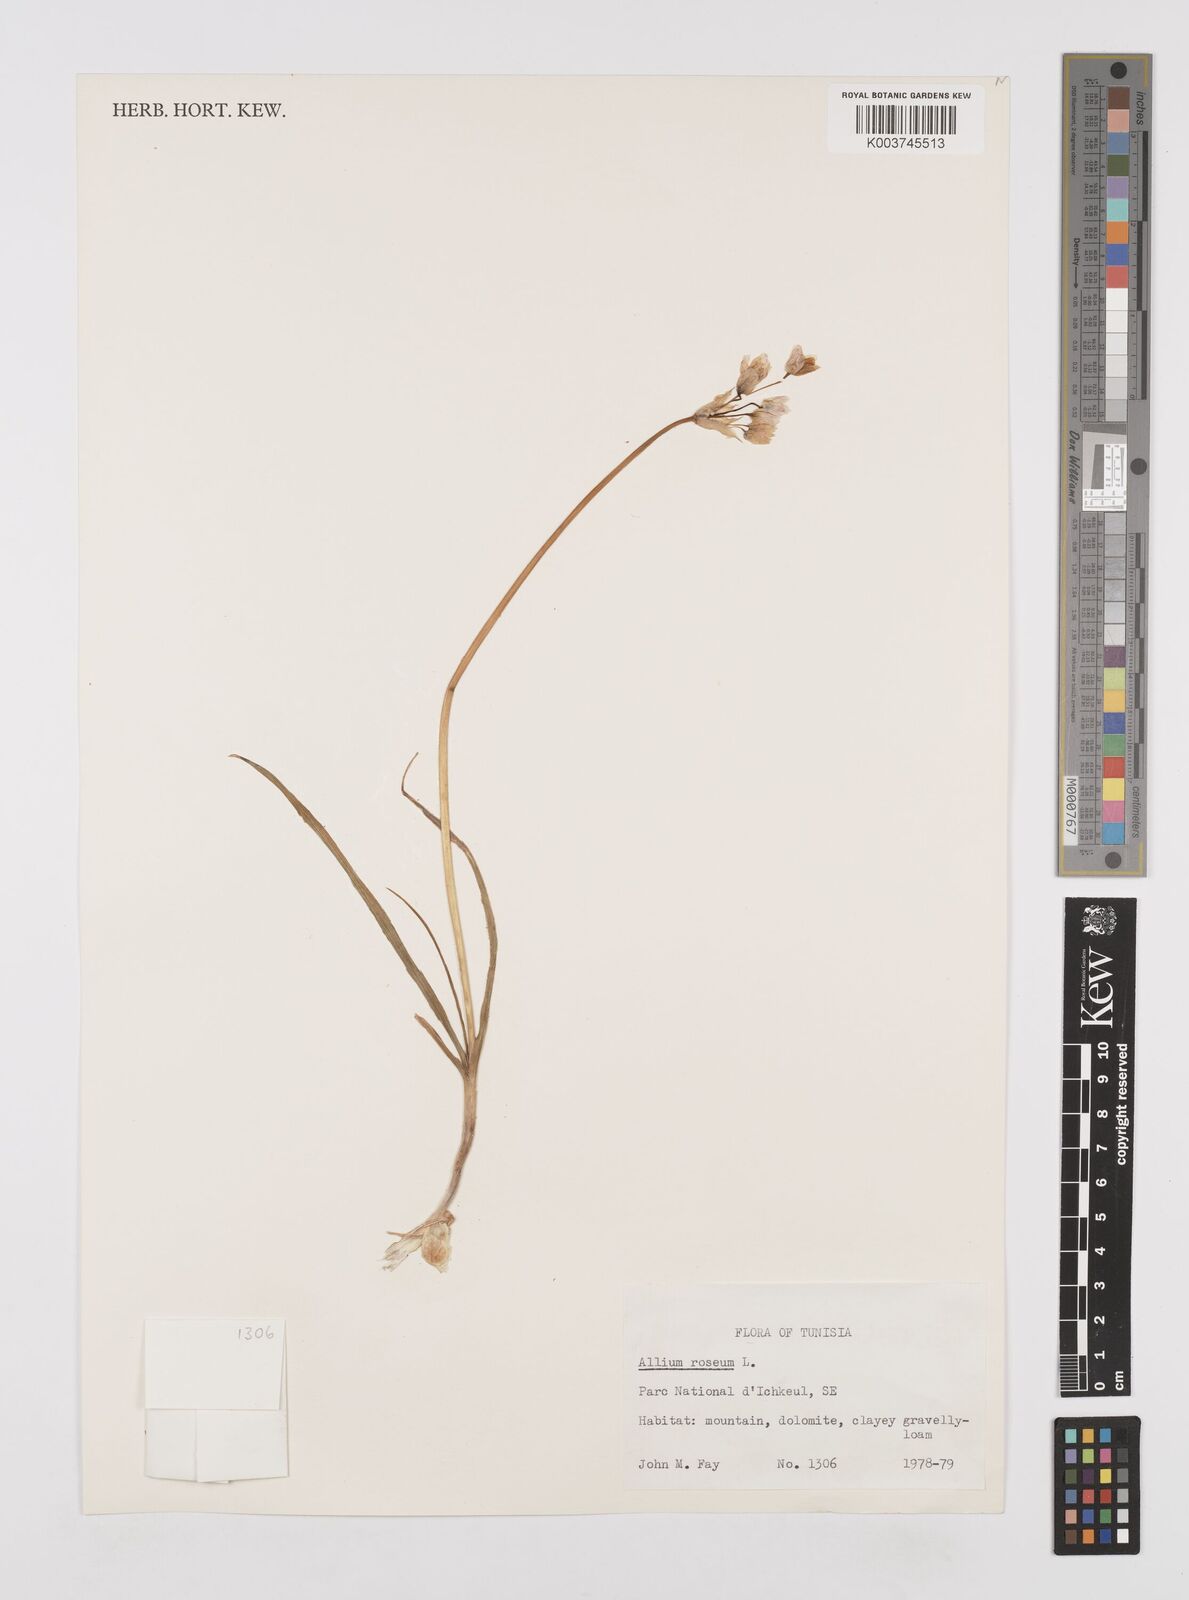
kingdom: Plantae
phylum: Tracheophyta
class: Liliopsida
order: Asparagales
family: Amaryllidaceae
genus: Allium
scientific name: Allium roseum
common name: Rosy garlic
